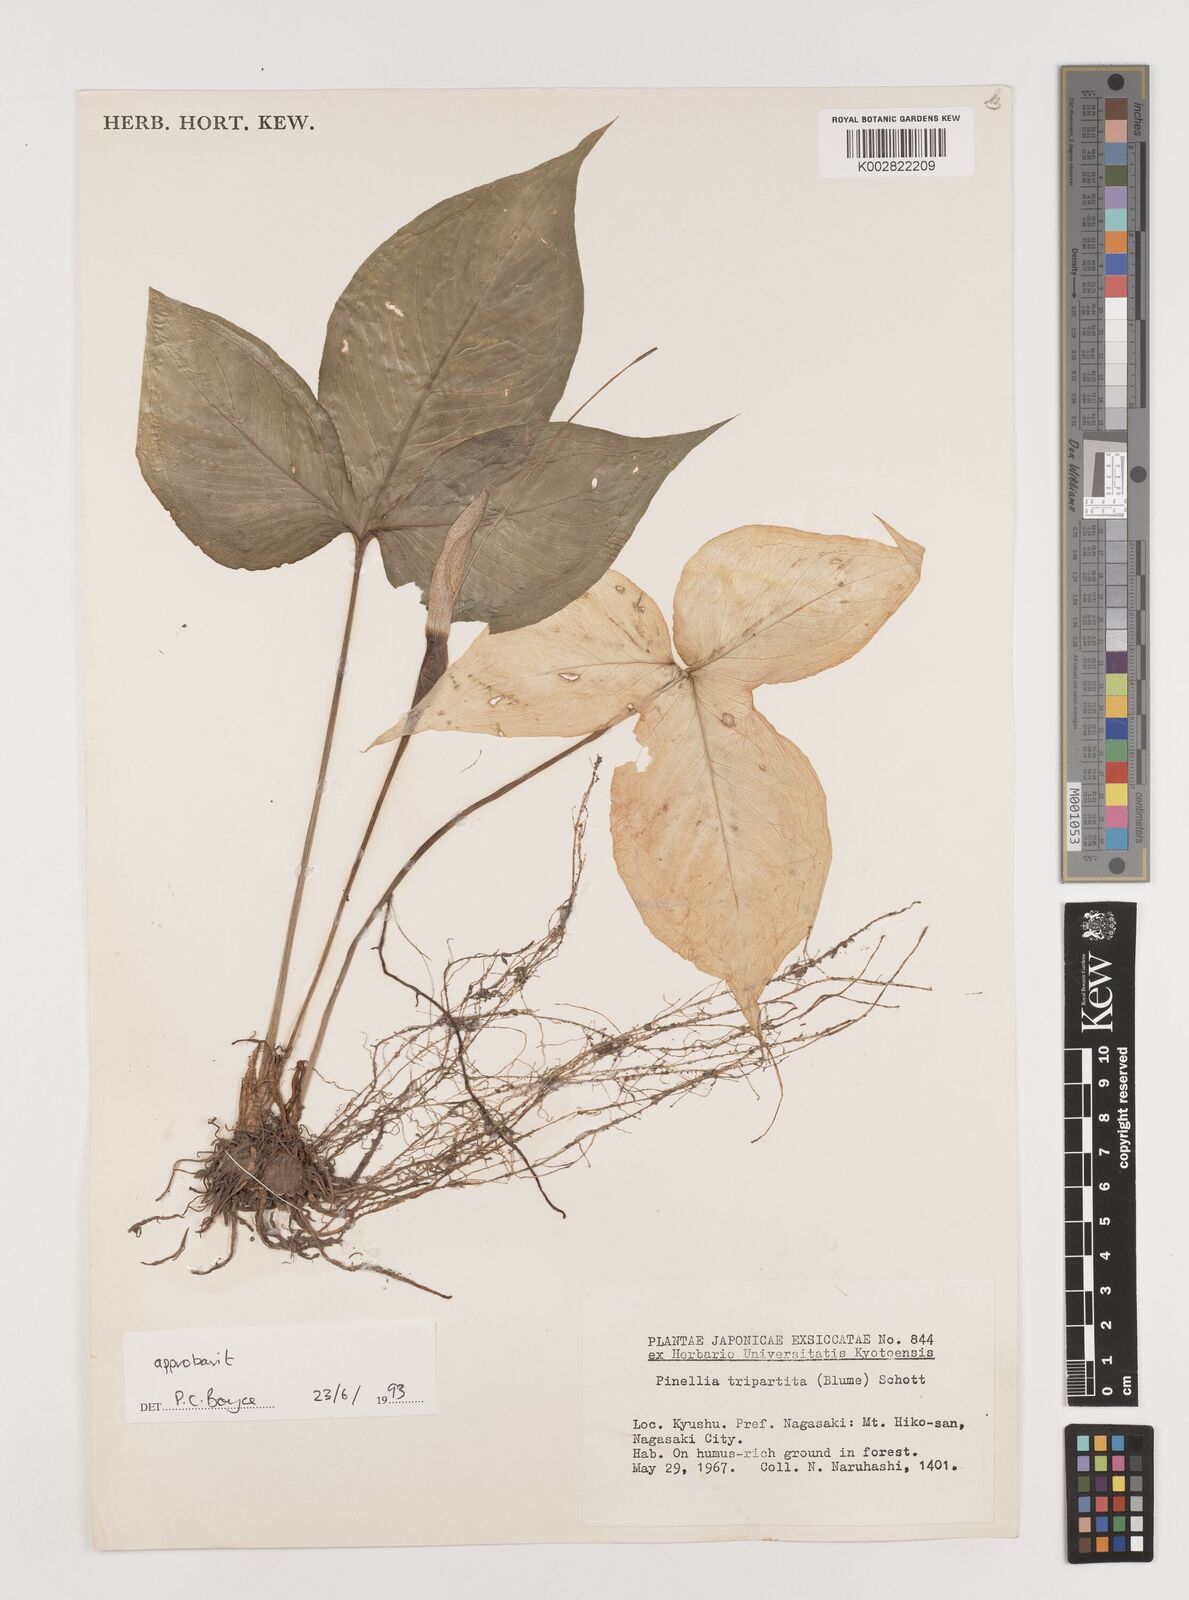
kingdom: Plantae
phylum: Tracheophyta
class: Liliopsida
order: Alismatales
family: Araceae
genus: Pinellia
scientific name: Pinellia tripartita
